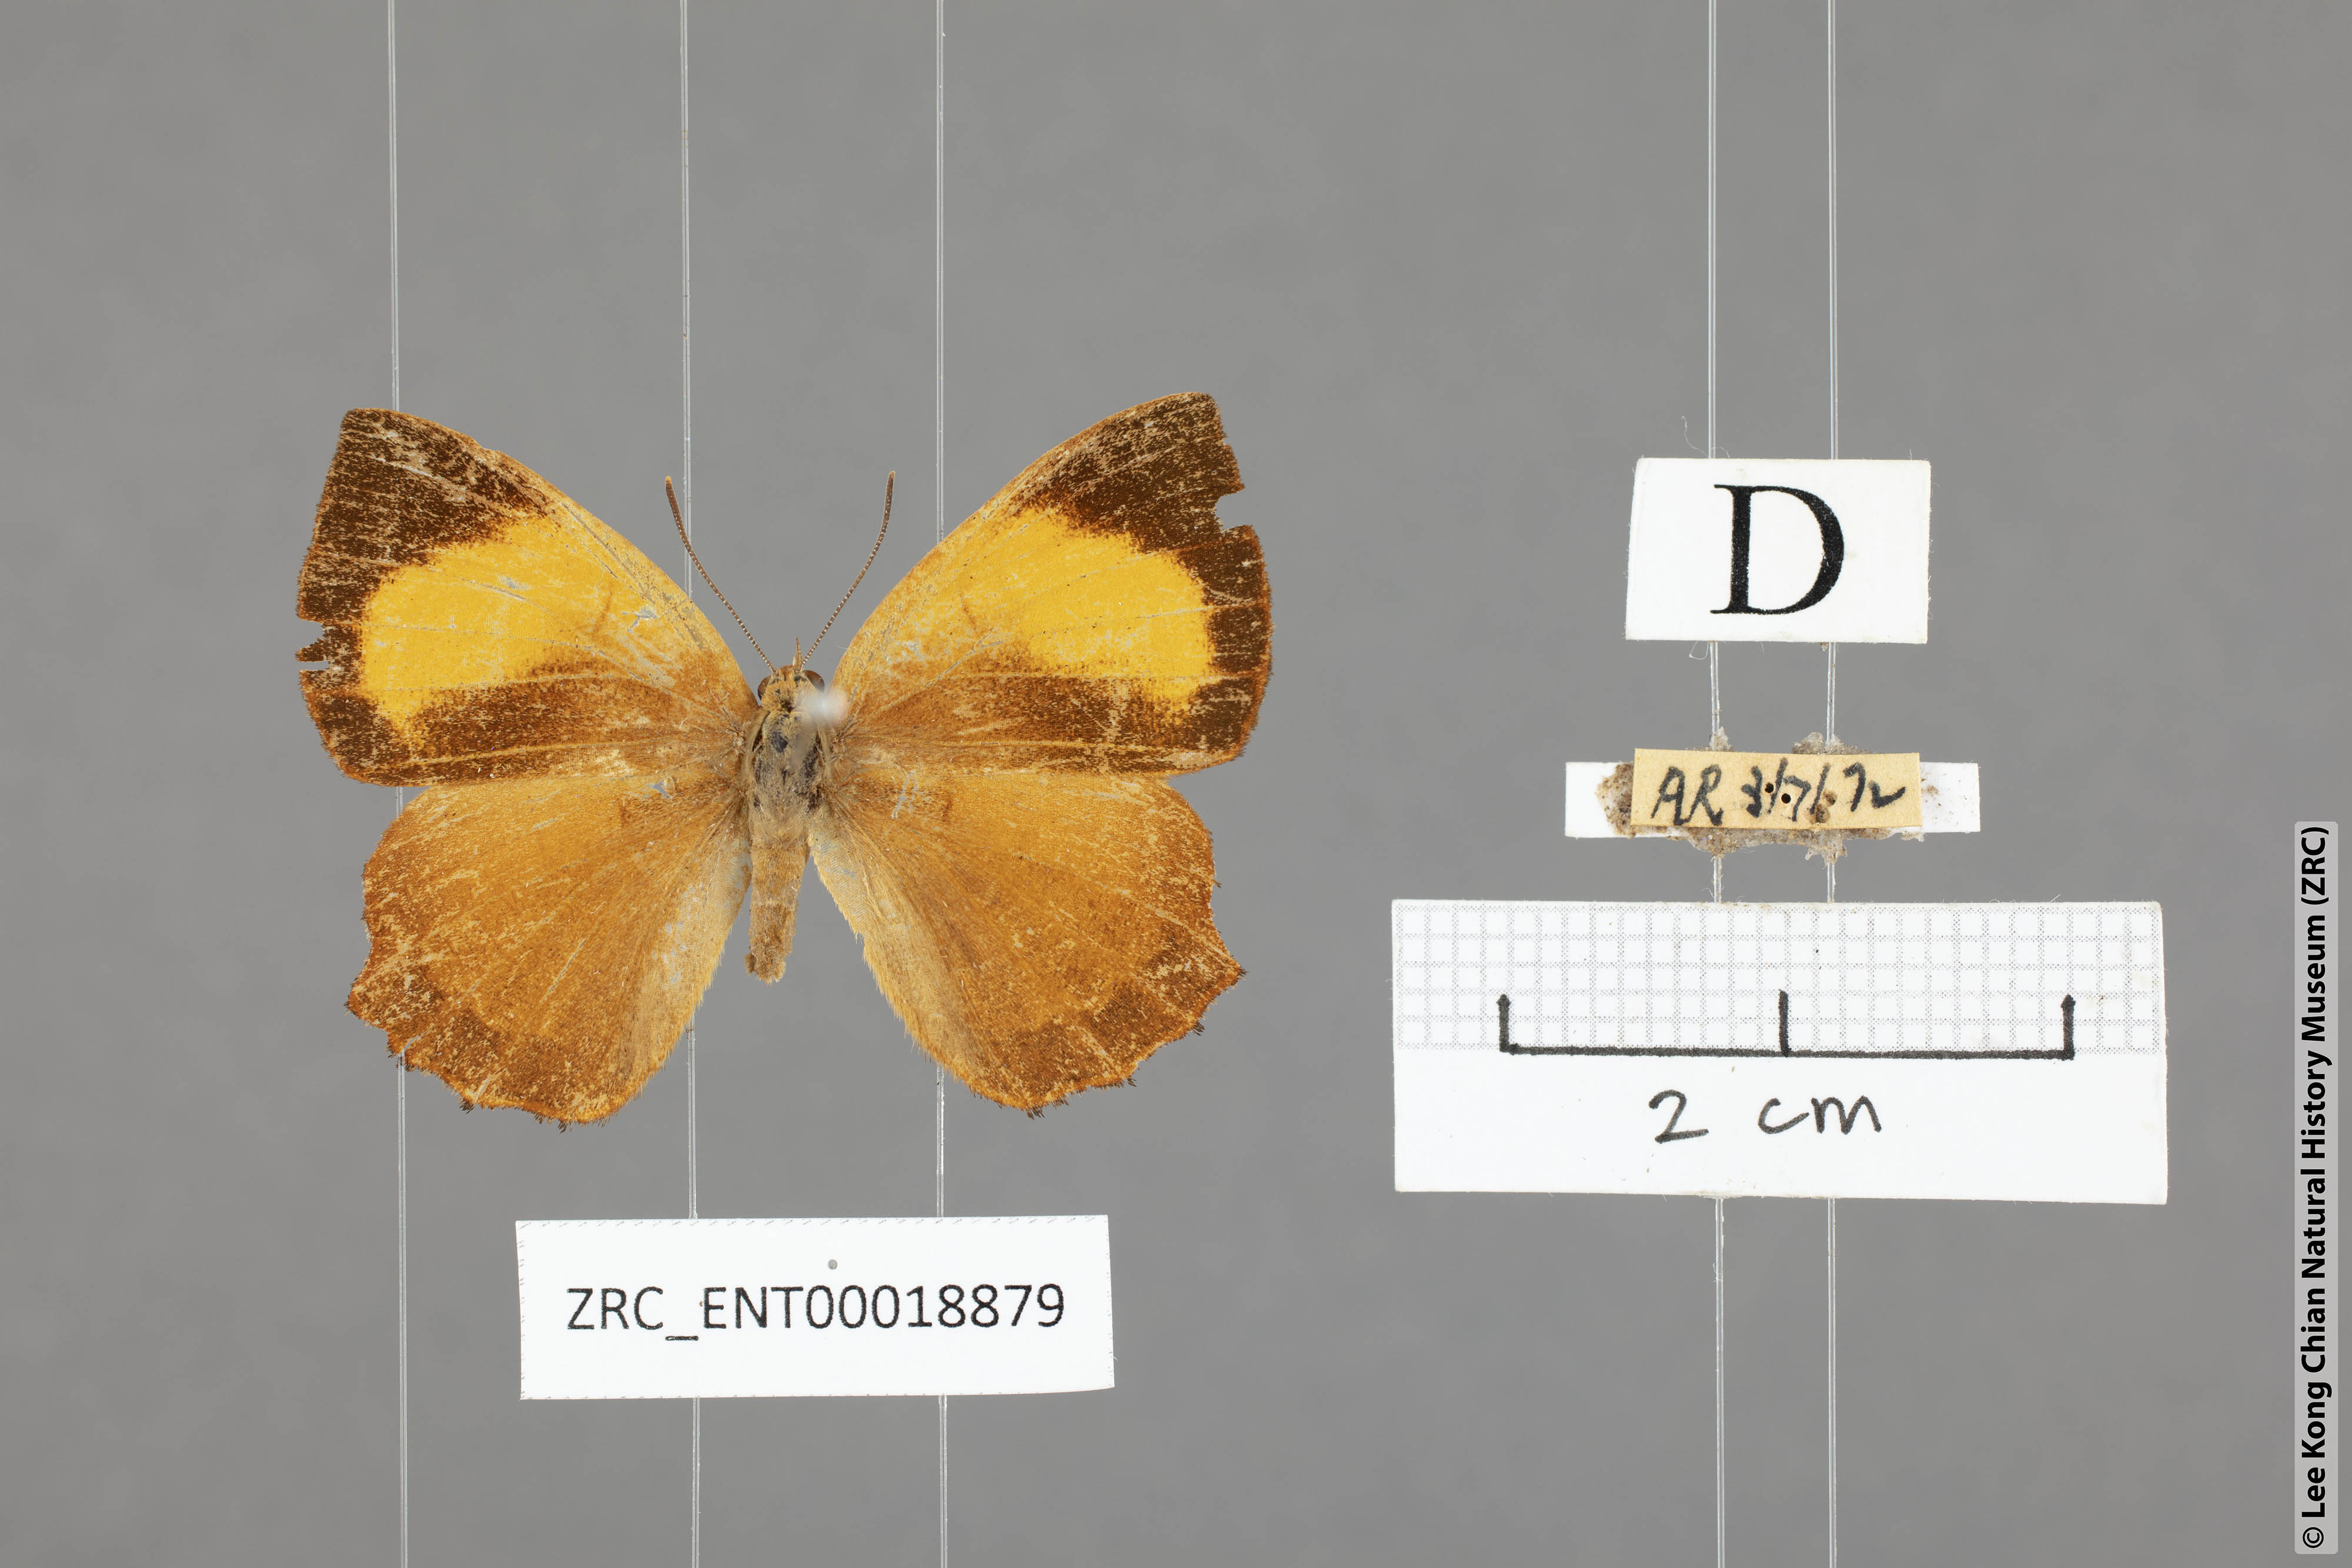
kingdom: Animalia
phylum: Arthropoda
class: Insecta
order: Lepidoptera
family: Lycaenidae
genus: Simiskina
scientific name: Simiskina
